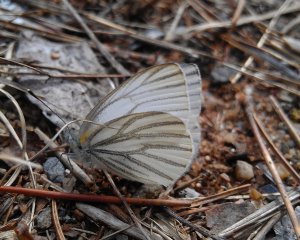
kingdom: Animalia
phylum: Arthropoda
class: Insecta
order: Lepidoptera
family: Pieridae
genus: Pieris
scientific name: Pieris oleracea
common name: Mustard White
